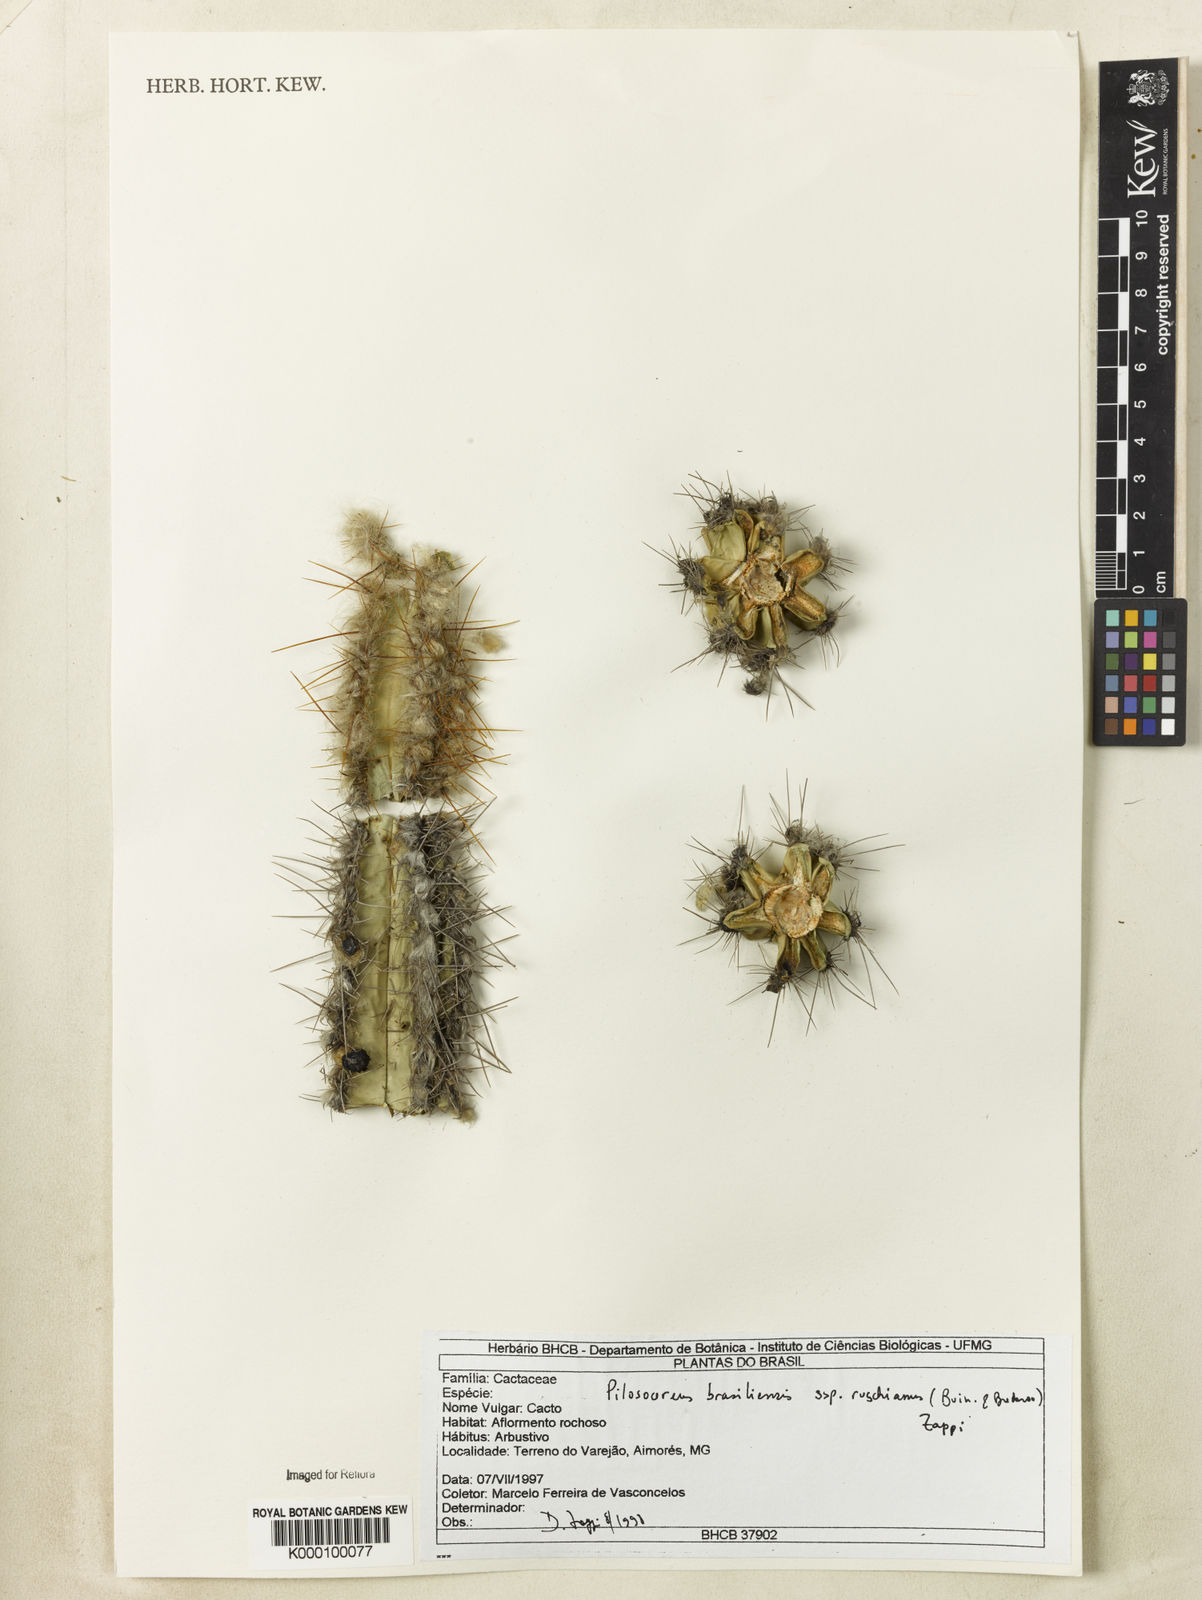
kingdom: Plantae
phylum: Tracheophyta
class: Magnoliopsida
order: Caryophyllales
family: Cactaceae
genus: Pilosocereus
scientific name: Pilosocereus brasiliensis
